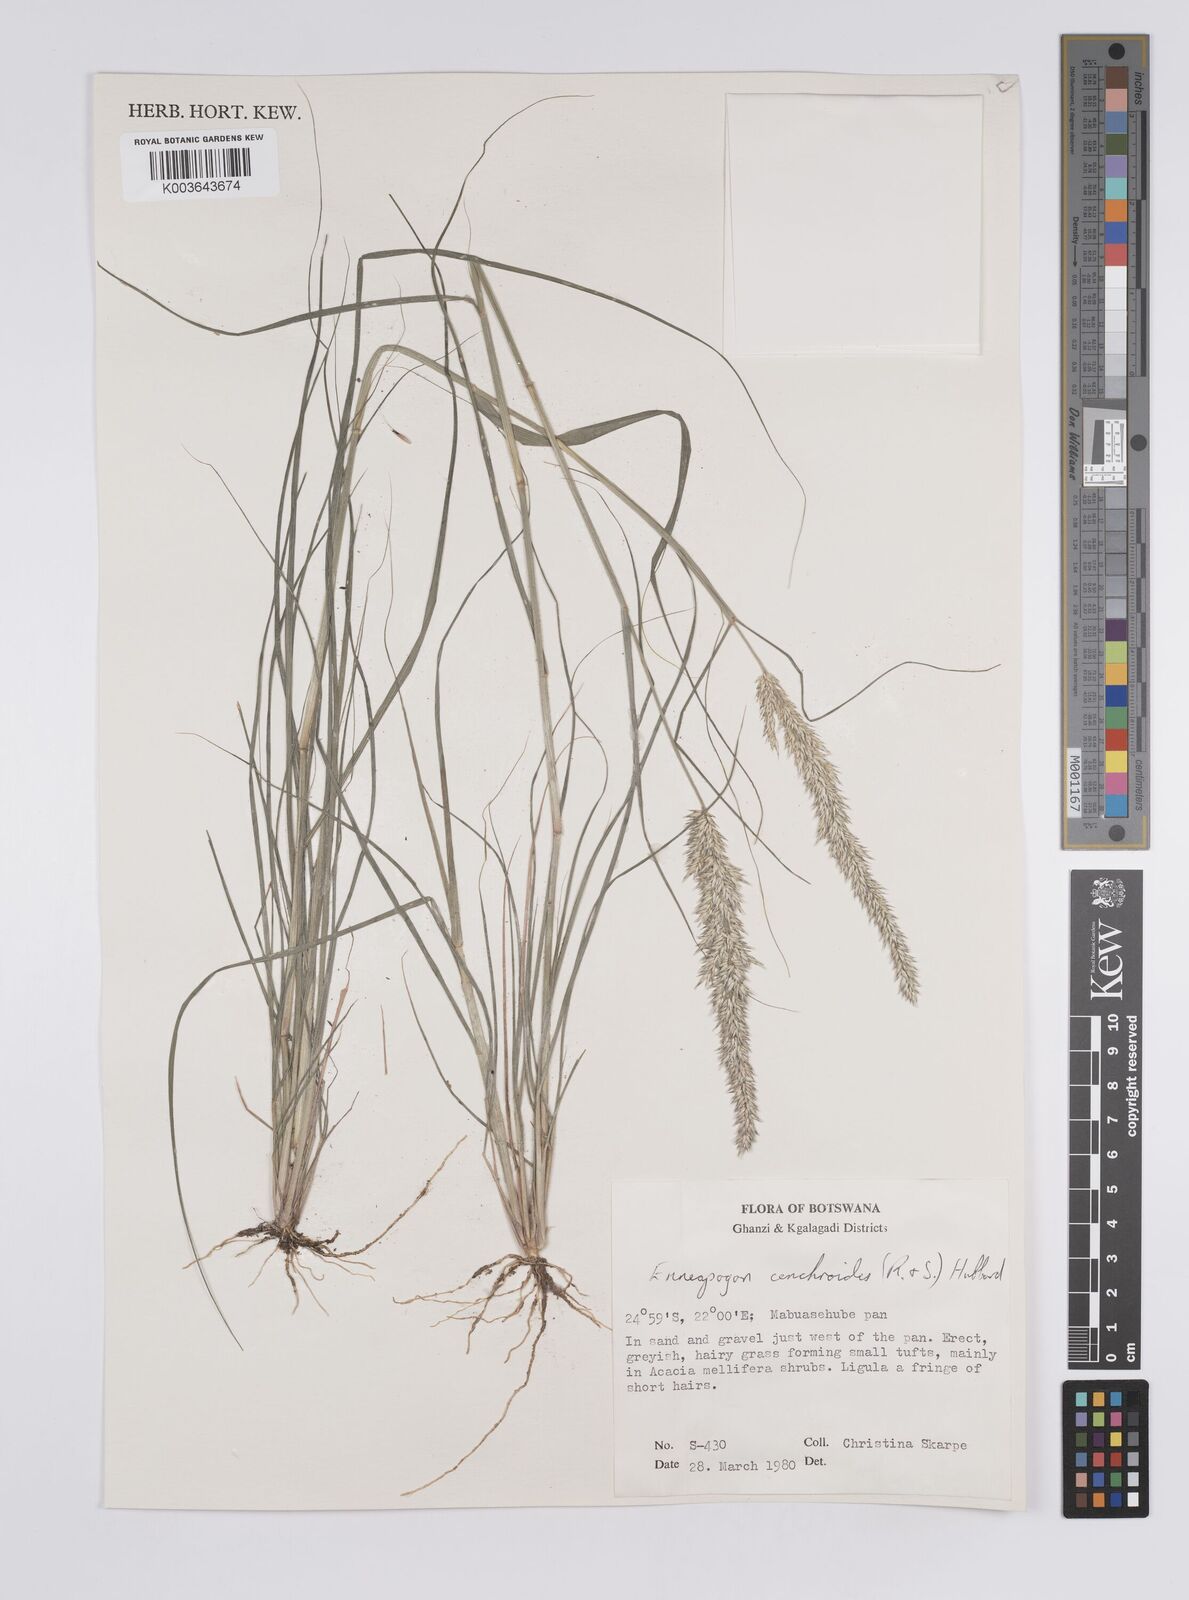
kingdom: Plantae
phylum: Tracheophyta
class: Liliopsida
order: Poales
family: Poaceae
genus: Enneapogon
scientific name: Enneapogon cenchroides
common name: Soft feather pappusgrass
